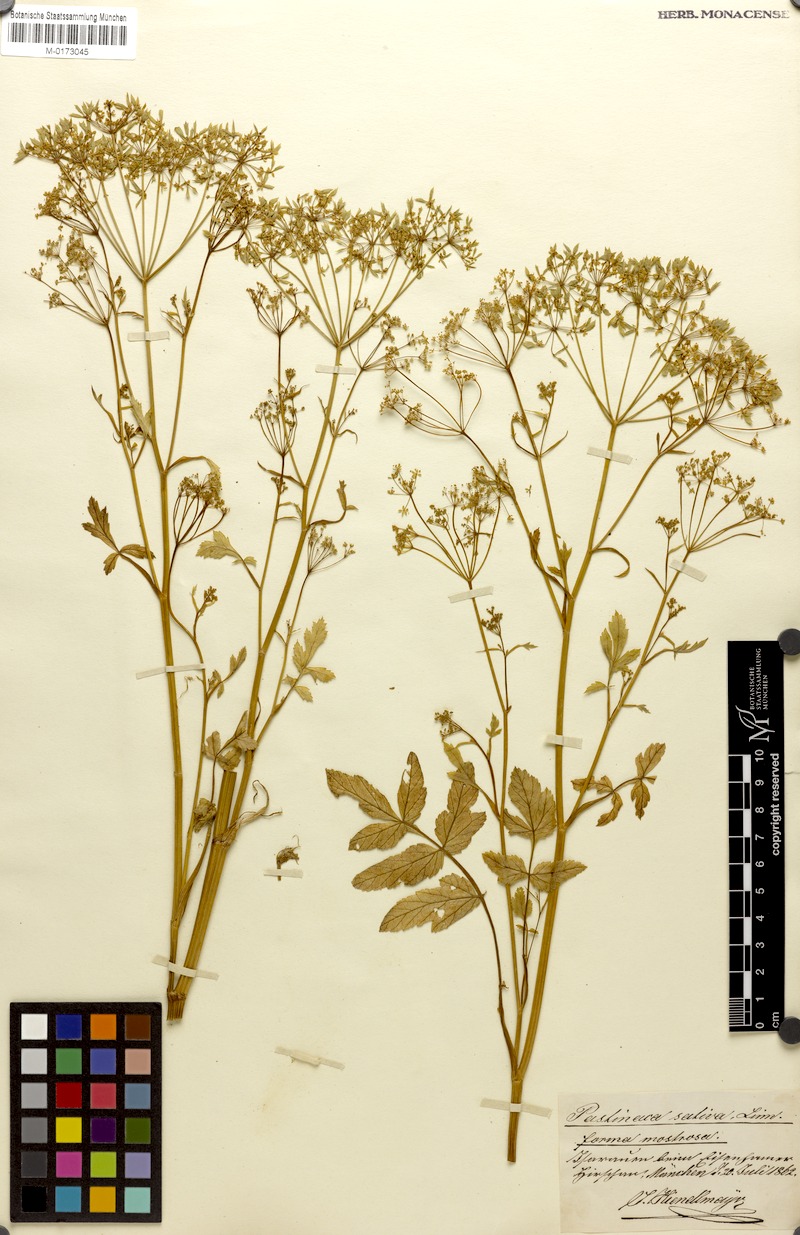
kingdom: Plantae
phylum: Tracheophyta
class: Magnoliopsida
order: Apiales
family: Apiaceae
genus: Pastinaca
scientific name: Pastinaca sativa
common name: Wild parsnip
